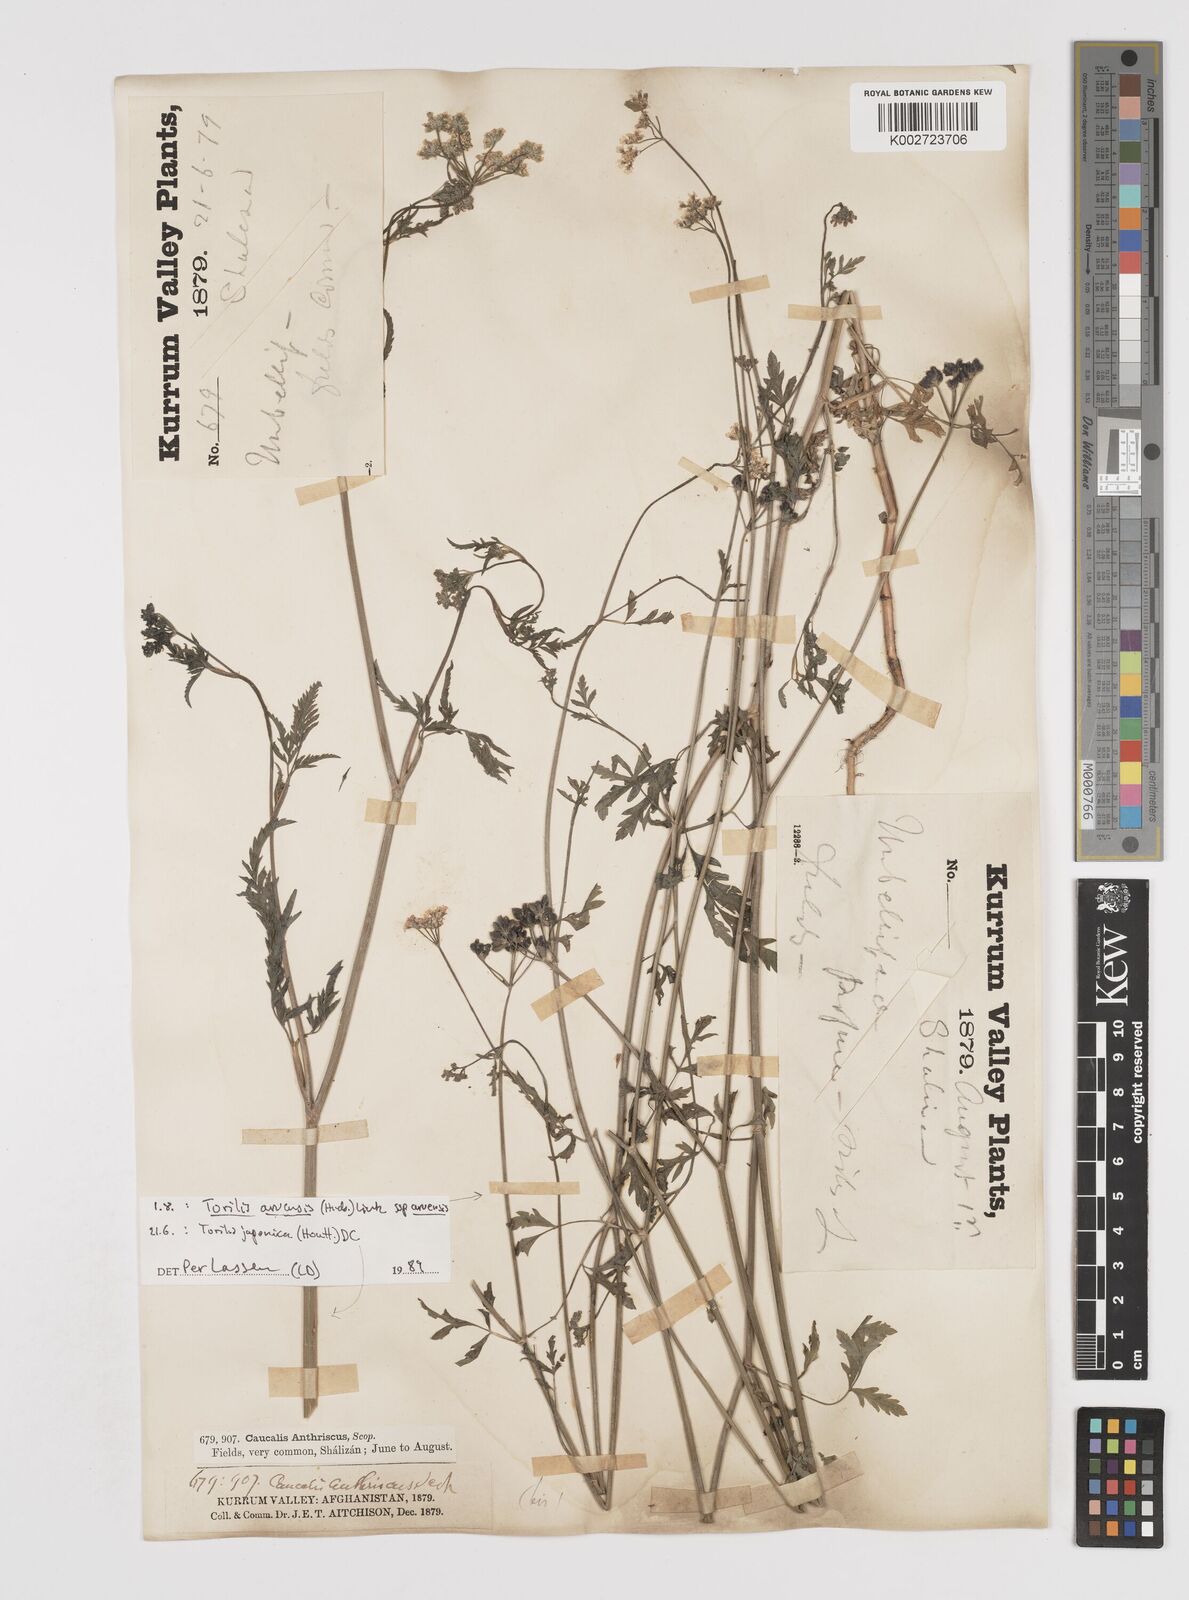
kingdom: Plantae
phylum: Tracheophyta
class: Magnoliopsida
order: Apiales
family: Apiaceae
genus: Torilis
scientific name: Torilis arvensis
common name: Spreading hedge-parsley
